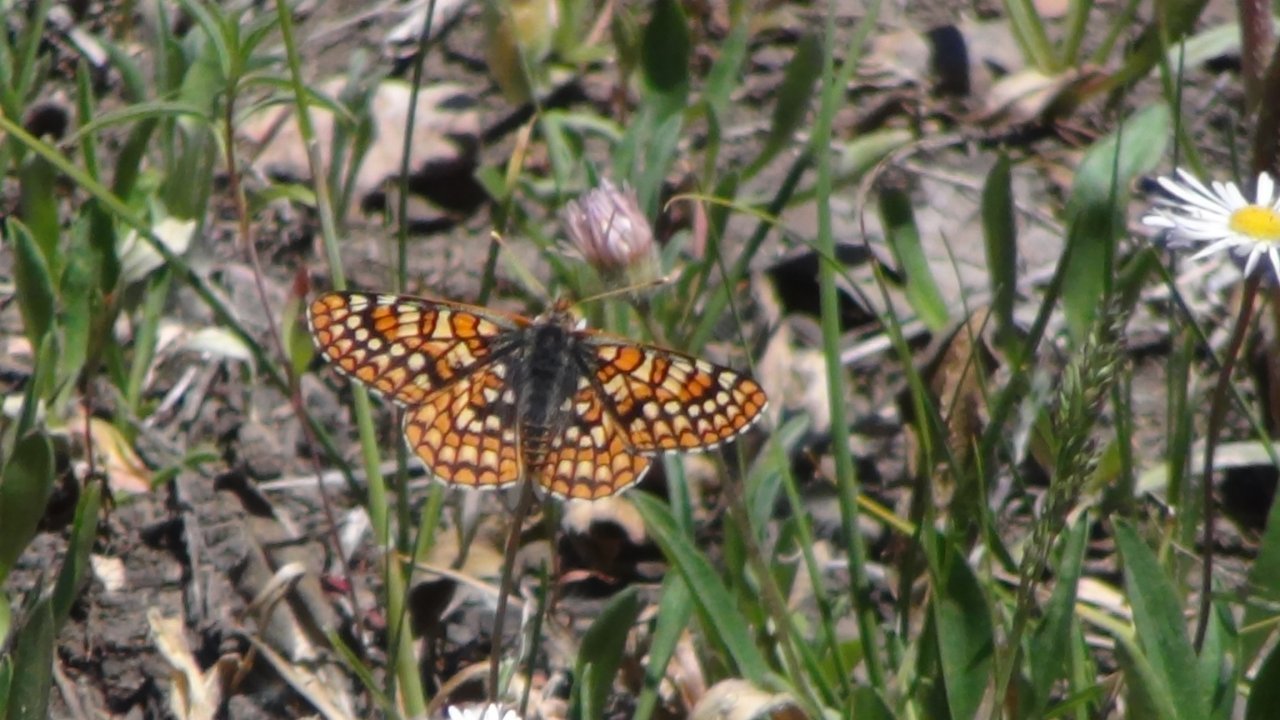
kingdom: Animalia
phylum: Arthropoda
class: Insecta
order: Lepidoptera
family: Nymphalidae
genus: Occidryas
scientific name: Occidryas anicia
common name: Anicia Checkerspot
